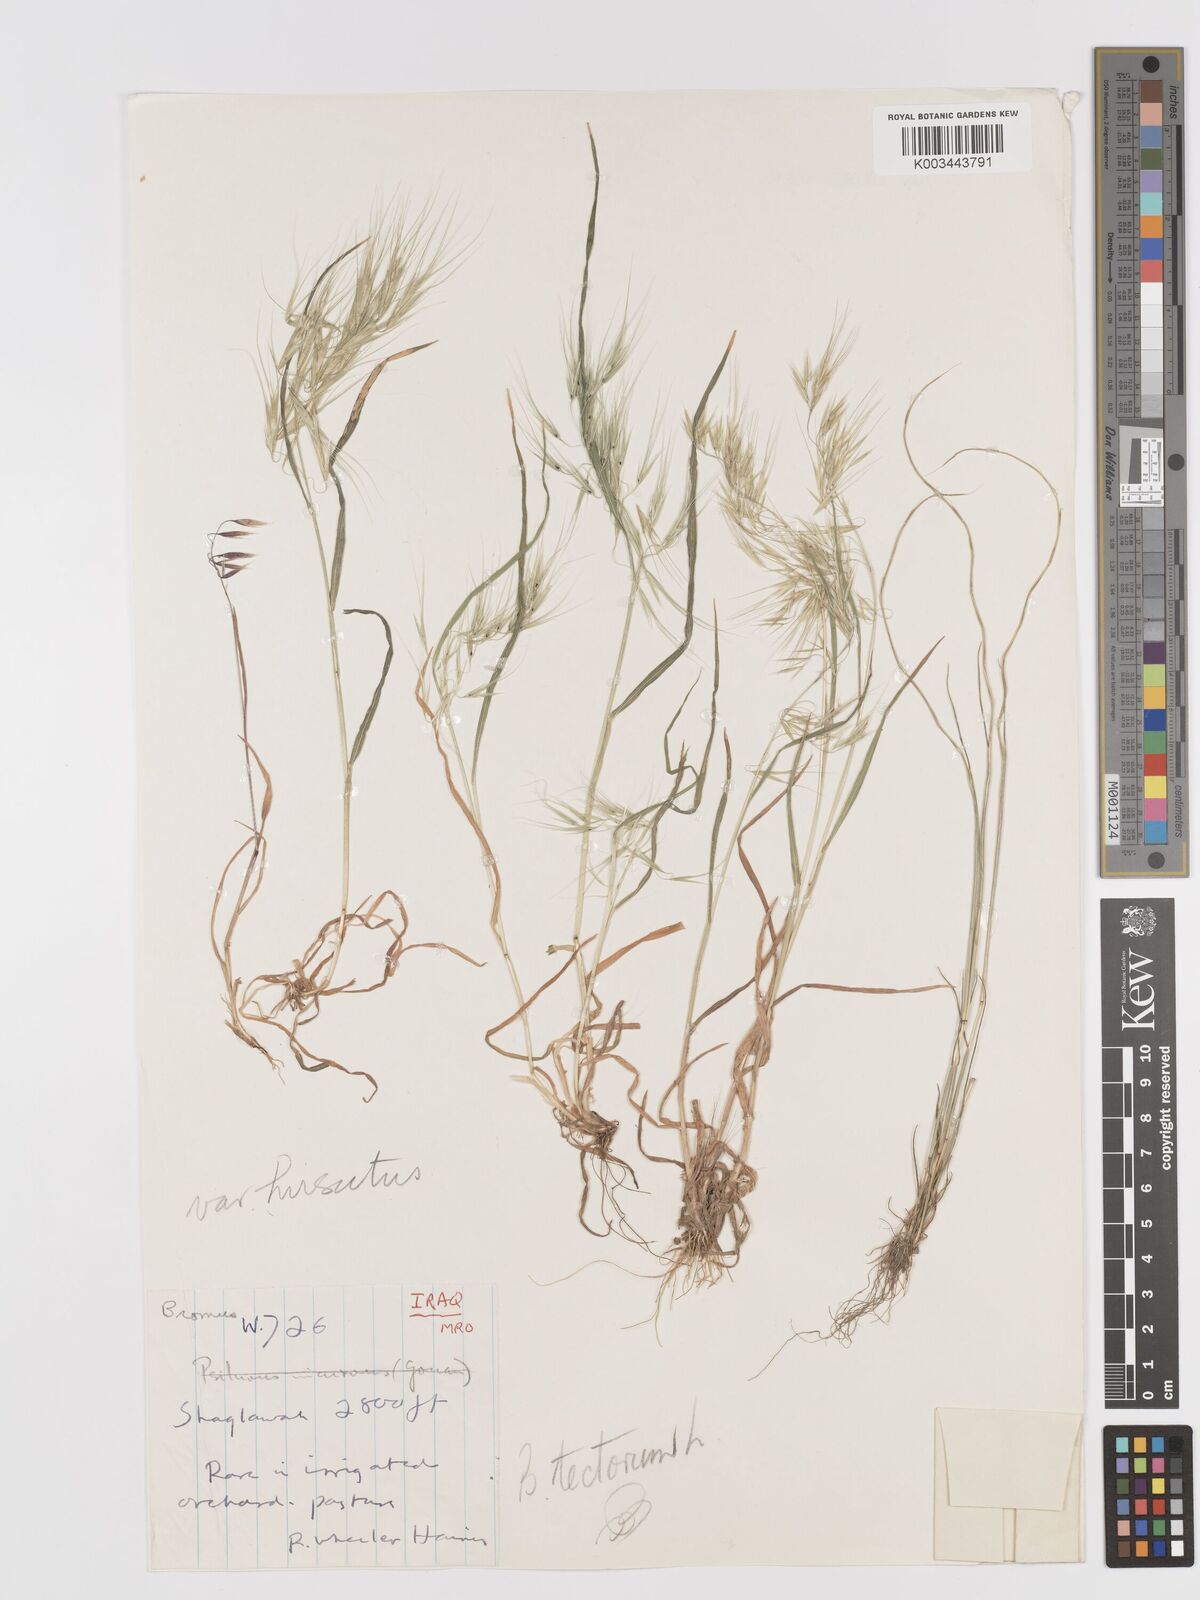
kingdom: Plantae
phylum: Tracheophyta
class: Liliopsida
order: Poales
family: Poaceae
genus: Bromus
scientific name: Bromus tectorum
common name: Cheatgrass
